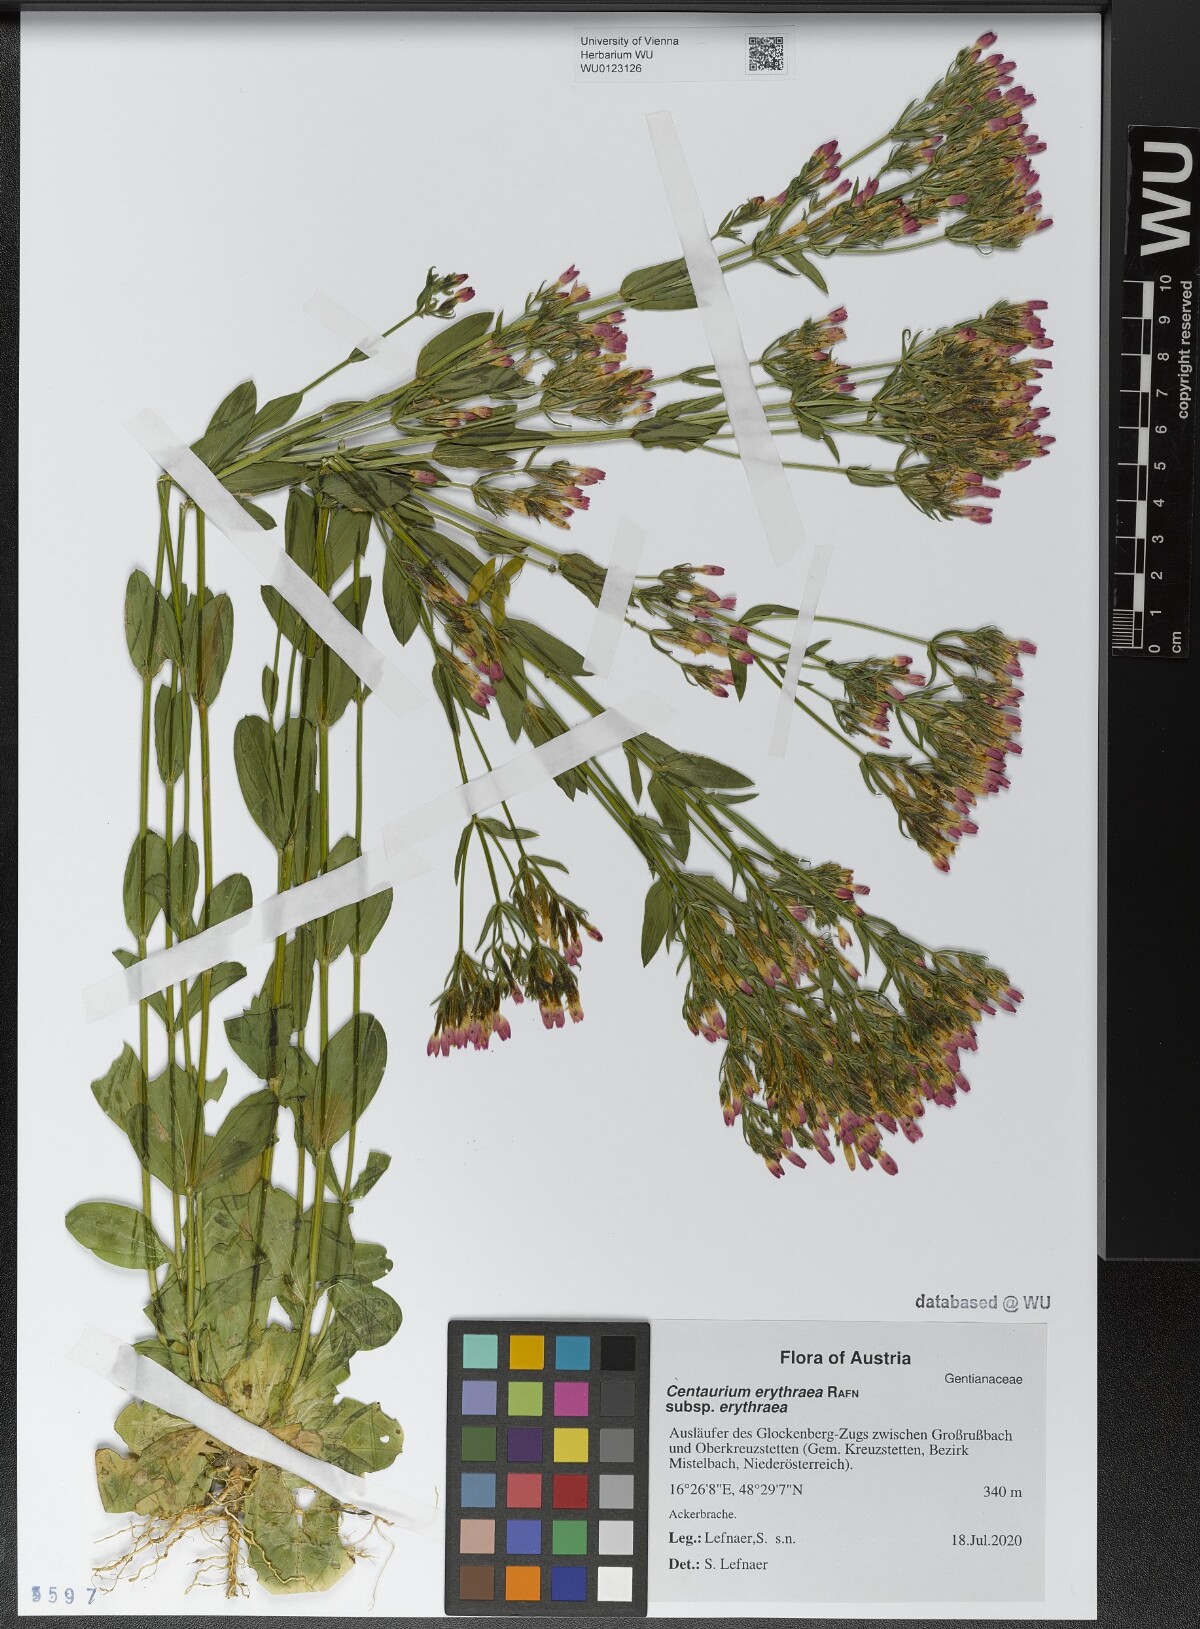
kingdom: Plantae
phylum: Tracheophyta
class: Magnoliopsida
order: Gentianales
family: Gentianaceae
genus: Centaurium
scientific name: Centaurium erythraea
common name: Common centaury
